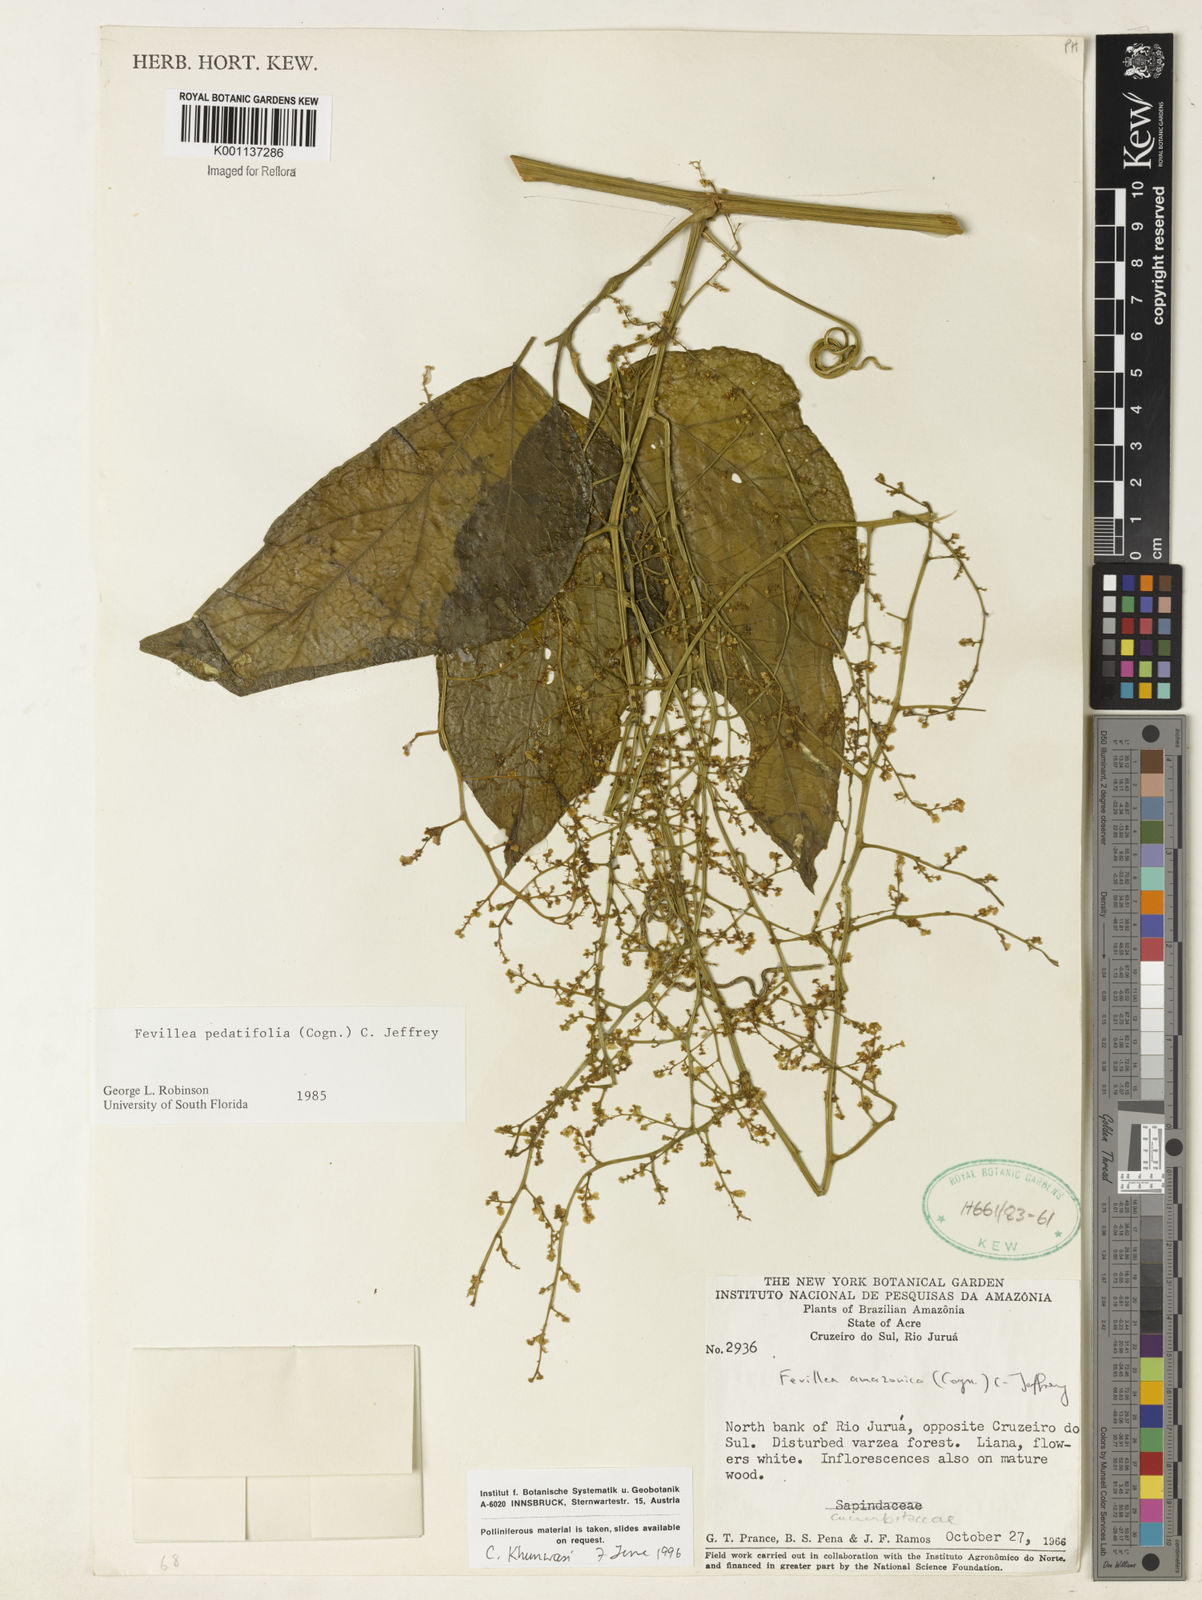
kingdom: Plantae
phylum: Tracheophyta
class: Magnoliopsida
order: Cucurbitales
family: Cucurbitaceae
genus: Fevillea
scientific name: Fevillea pedatifolia
